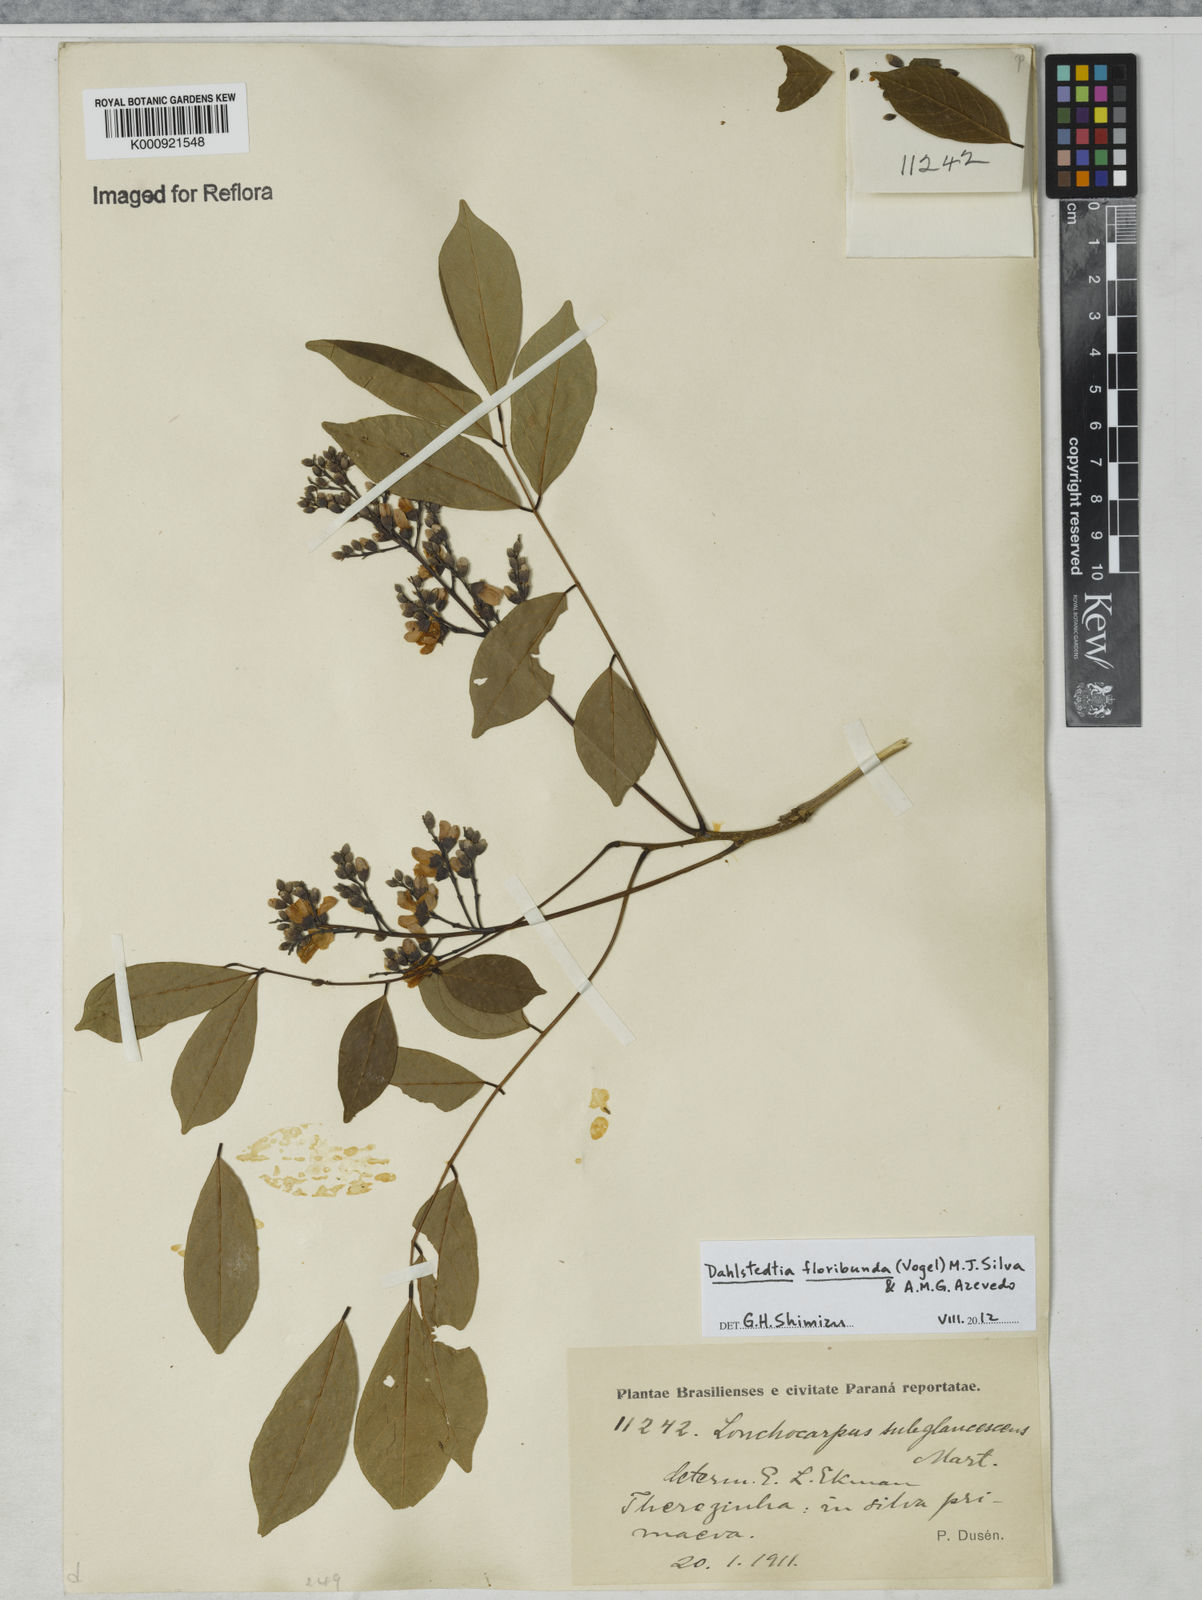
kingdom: Plantae
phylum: Tracheophyta
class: Magnoliopsida
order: Fabales
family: Fabaceae
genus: Dahlstedtia
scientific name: Dahlstedtia floribunda
